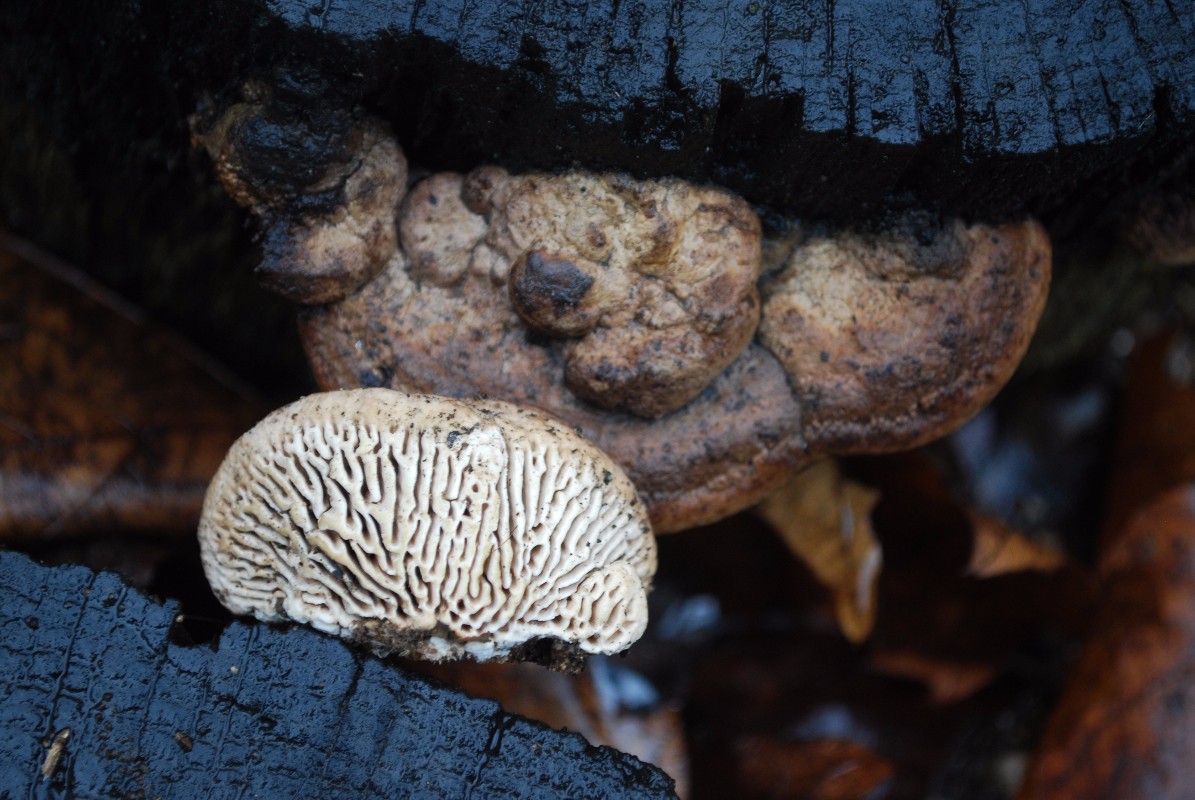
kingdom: Fungi
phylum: Basidiomycota
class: Agaricomycetes
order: Polyporales
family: Fomitopsidaceae
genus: Daedalea
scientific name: Daedalea quercina
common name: ege-labyrintsvamp
